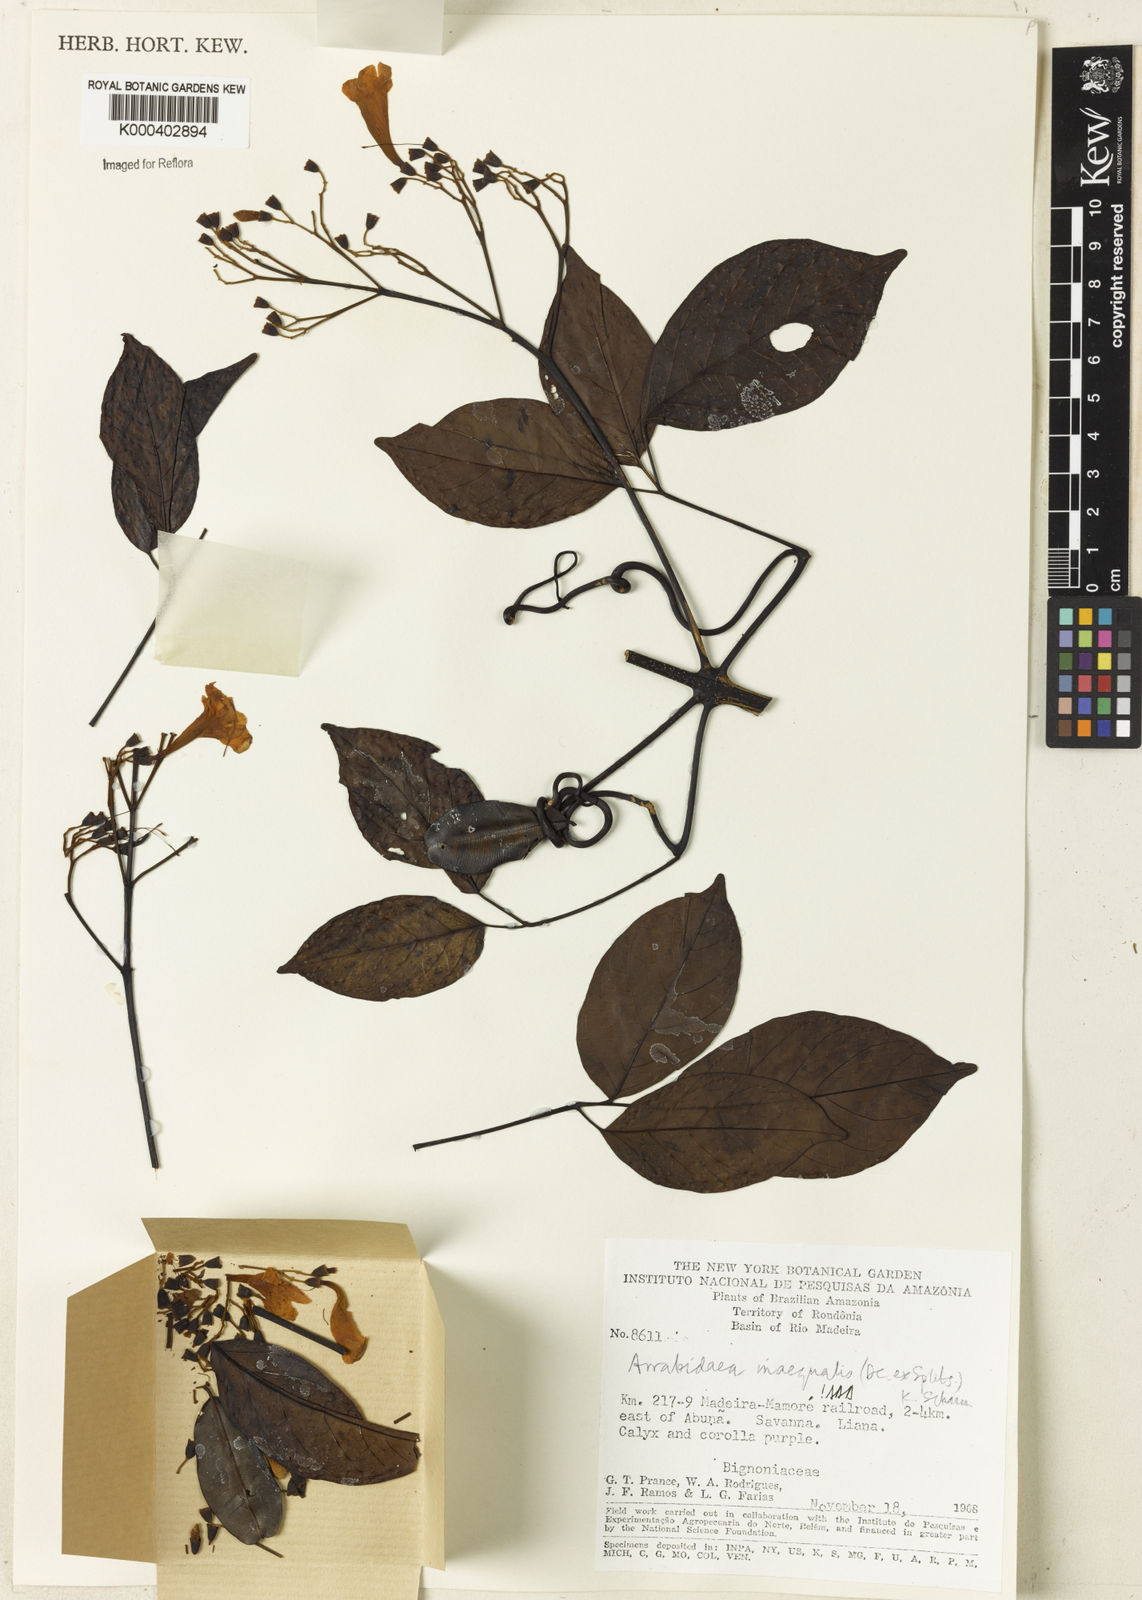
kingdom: Plantae
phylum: Tracheophyta
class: Magnoliopsida
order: Lamiales
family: Bignoniaceae
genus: Cuspidaria
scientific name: Cuspidaria inaequalis
